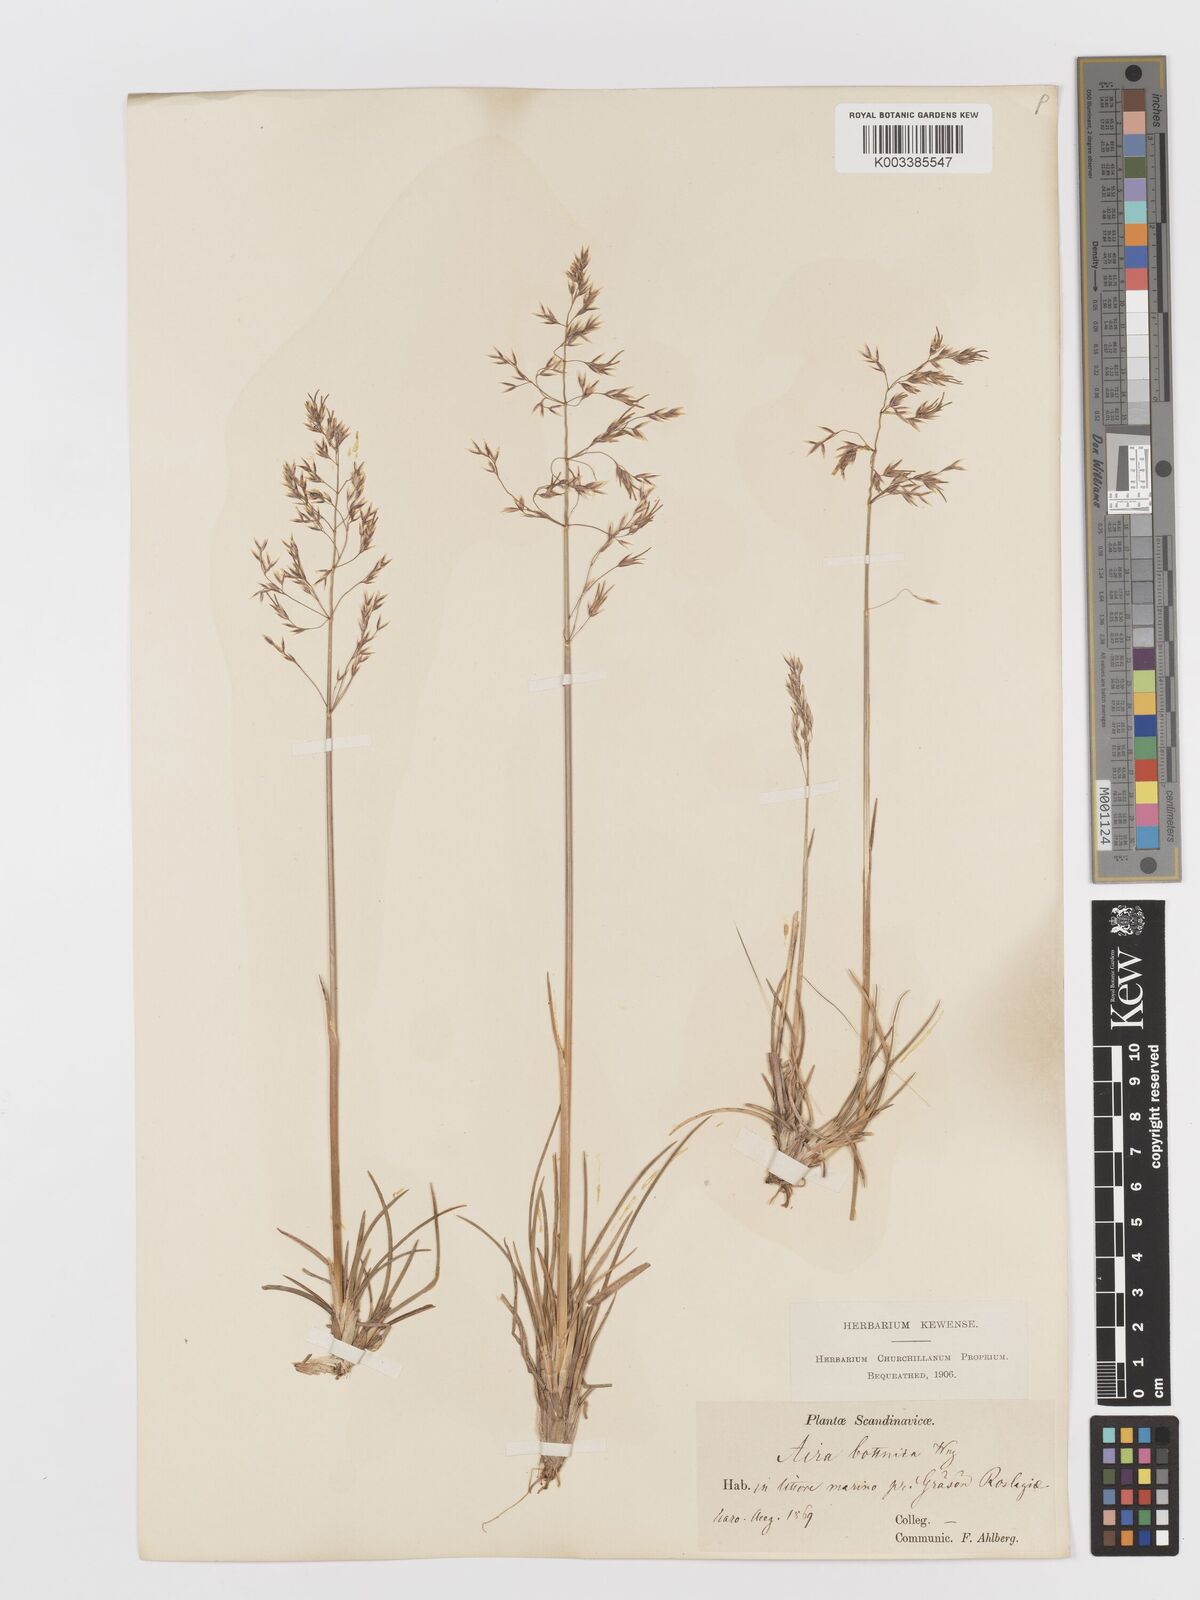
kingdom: Plantae
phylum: Tracheophyta
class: Liliopsida
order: Poales
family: Poaceae
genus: Deschampsia
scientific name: Deschampsia cespitosa
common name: Tufted hair-grass
